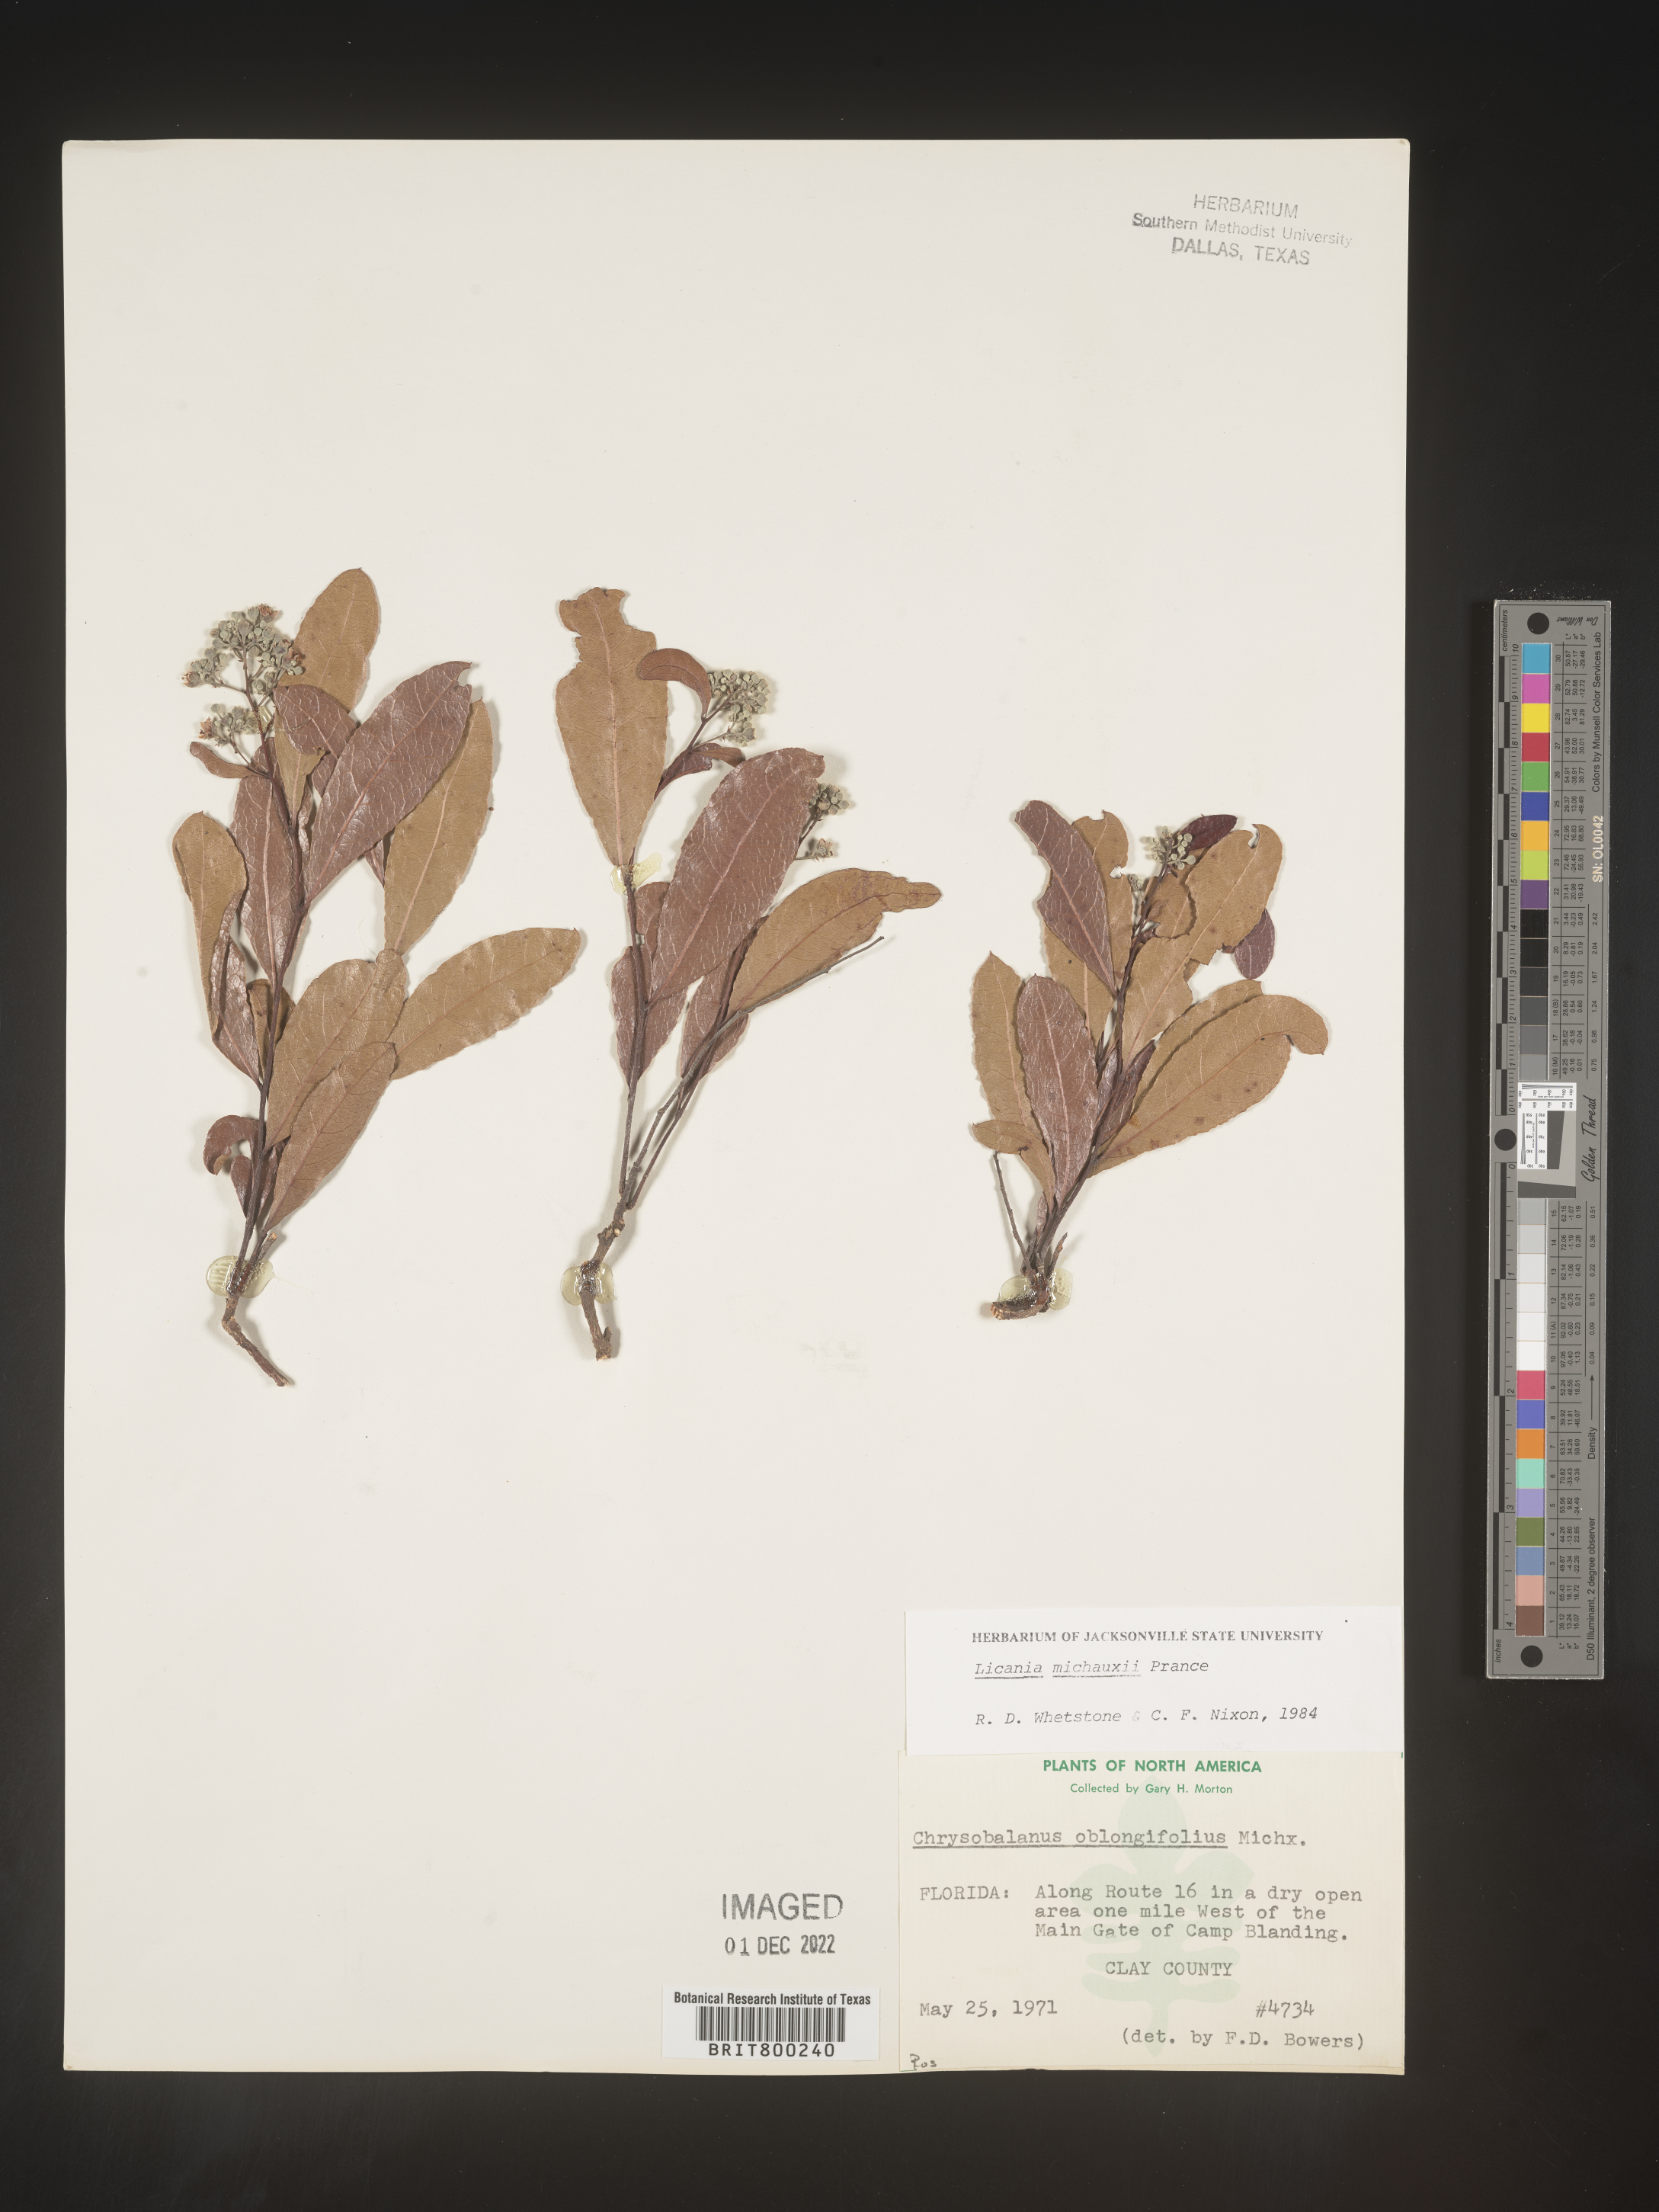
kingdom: Plantae
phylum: Tracheophyta
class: Magnoliopsida
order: Malpighiales
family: Chrysobalanaceae
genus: Geobalanus
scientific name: Geobalanus oblongifolius
